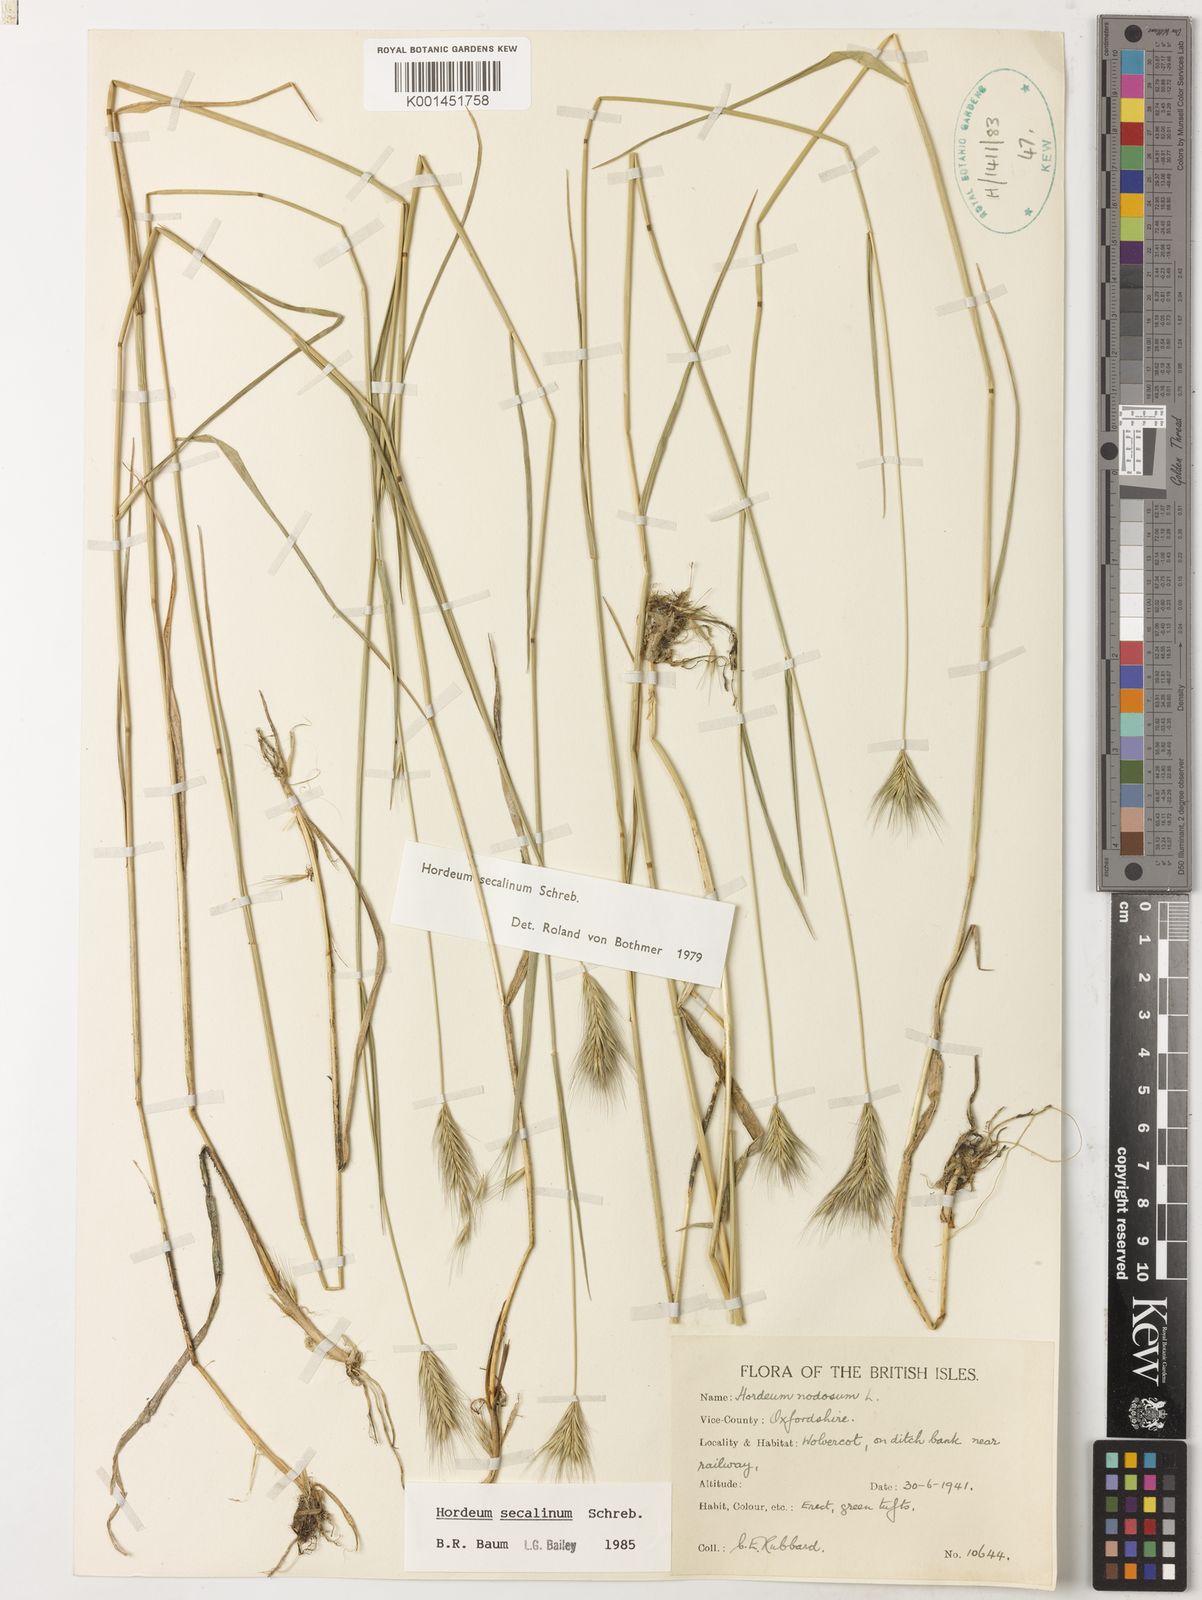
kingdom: Plantae
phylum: Tracheophyta
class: Liliopsida
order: Poales
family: Poaceae
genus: Hordeum
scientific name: Hordeum secalinum
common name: Meadow barley
